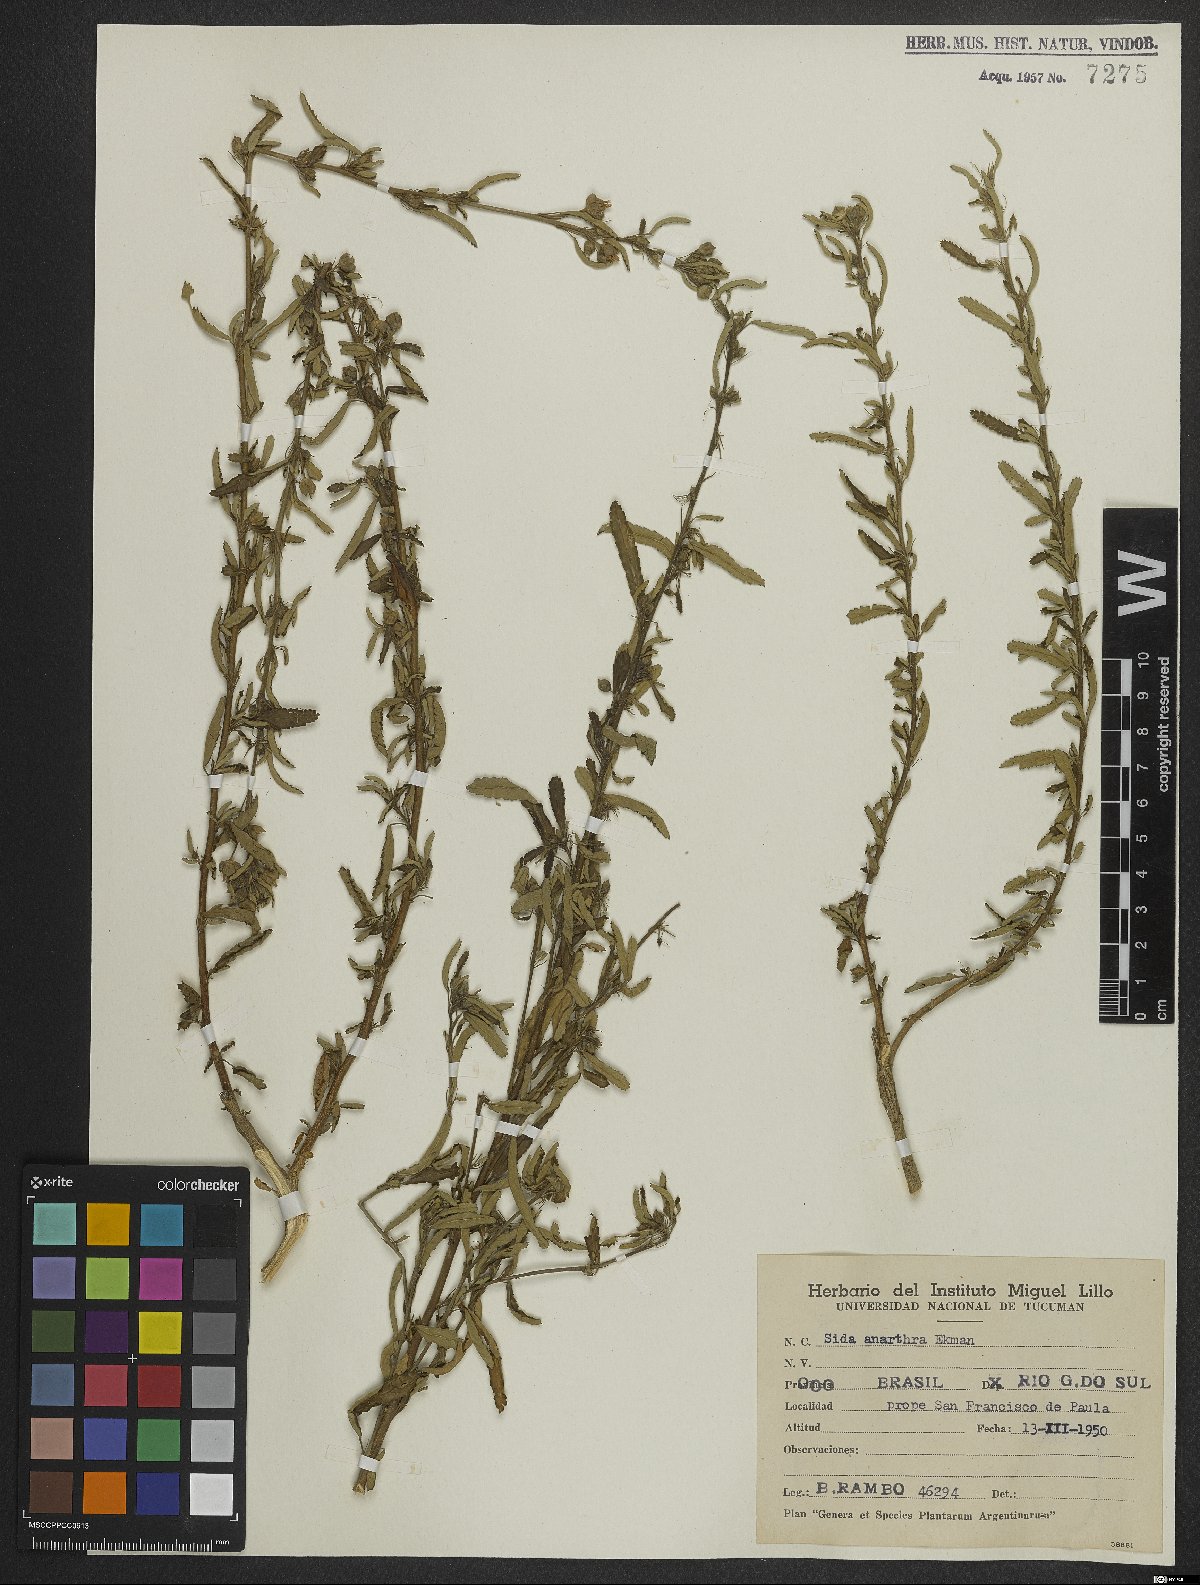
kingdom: Plantae
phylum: Tracheophyta
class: Magnoliopsida
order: Malvales
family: Malvaceae
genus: Sida
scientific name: Sida potentilloides
